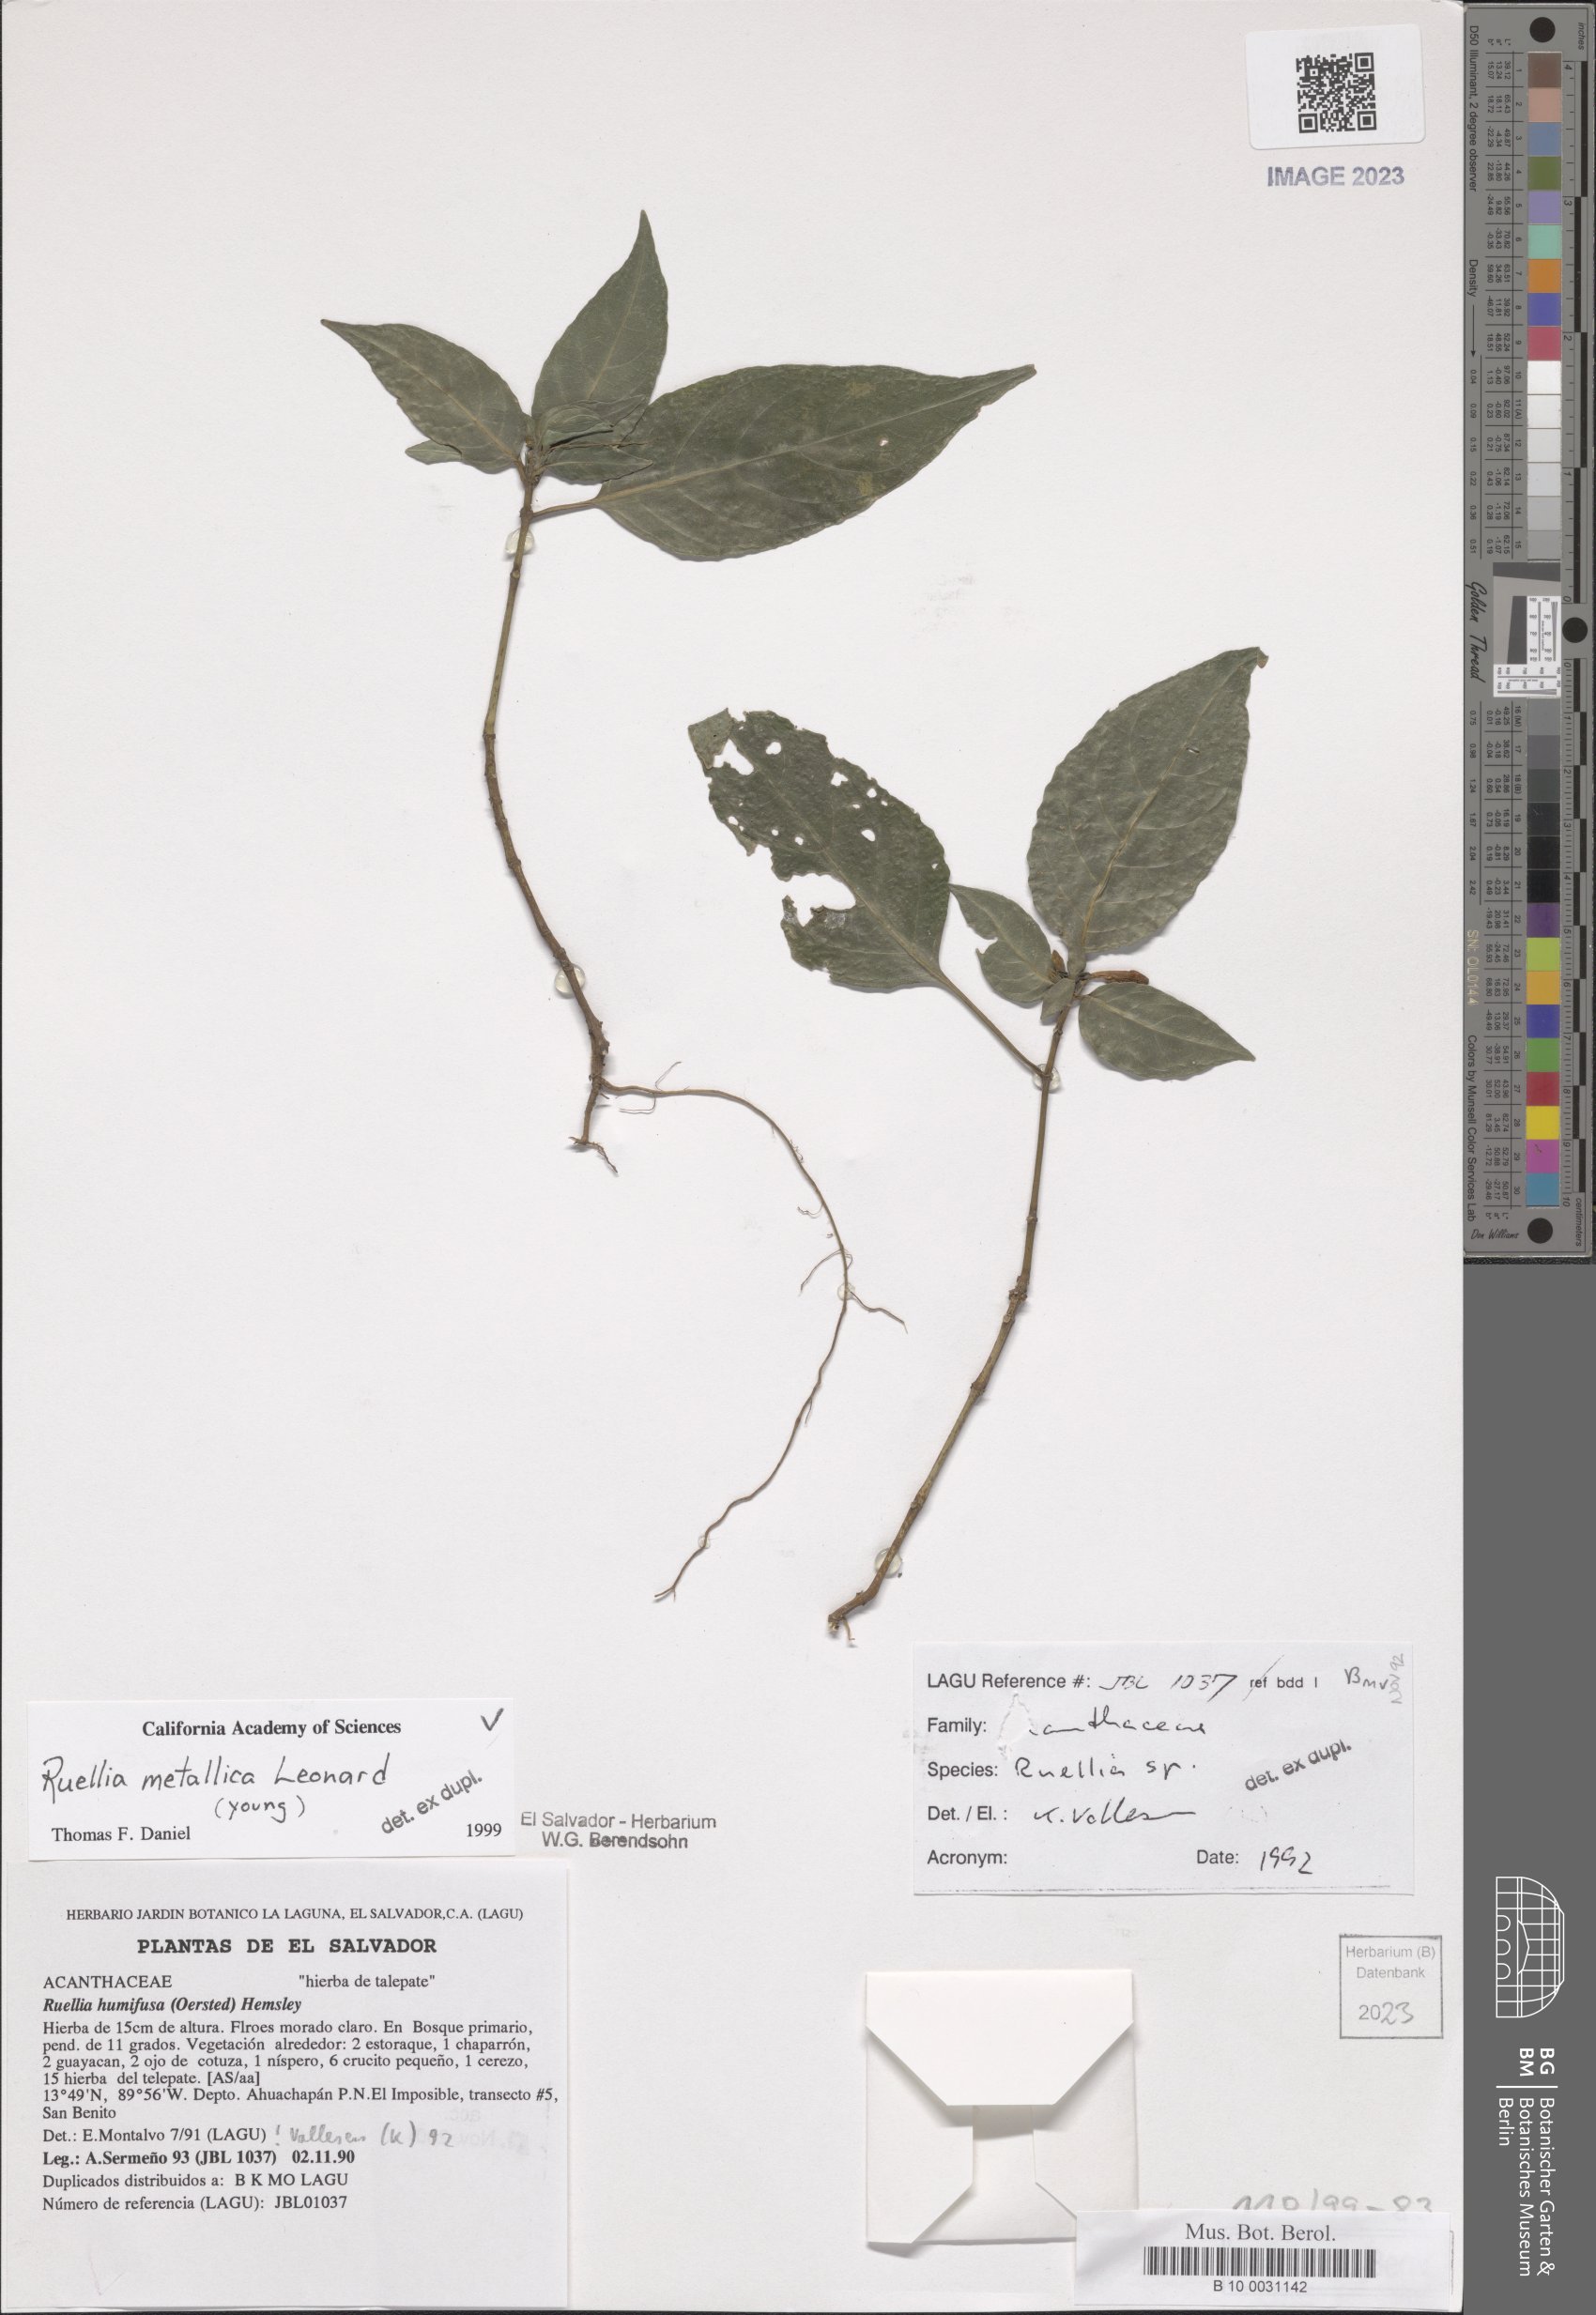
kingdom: Plantae
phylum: Tracheophyta
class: Magnoliopsida
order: Lamiales
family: Acanthaceae
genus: Ruellia
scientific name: Ruellia metallica
